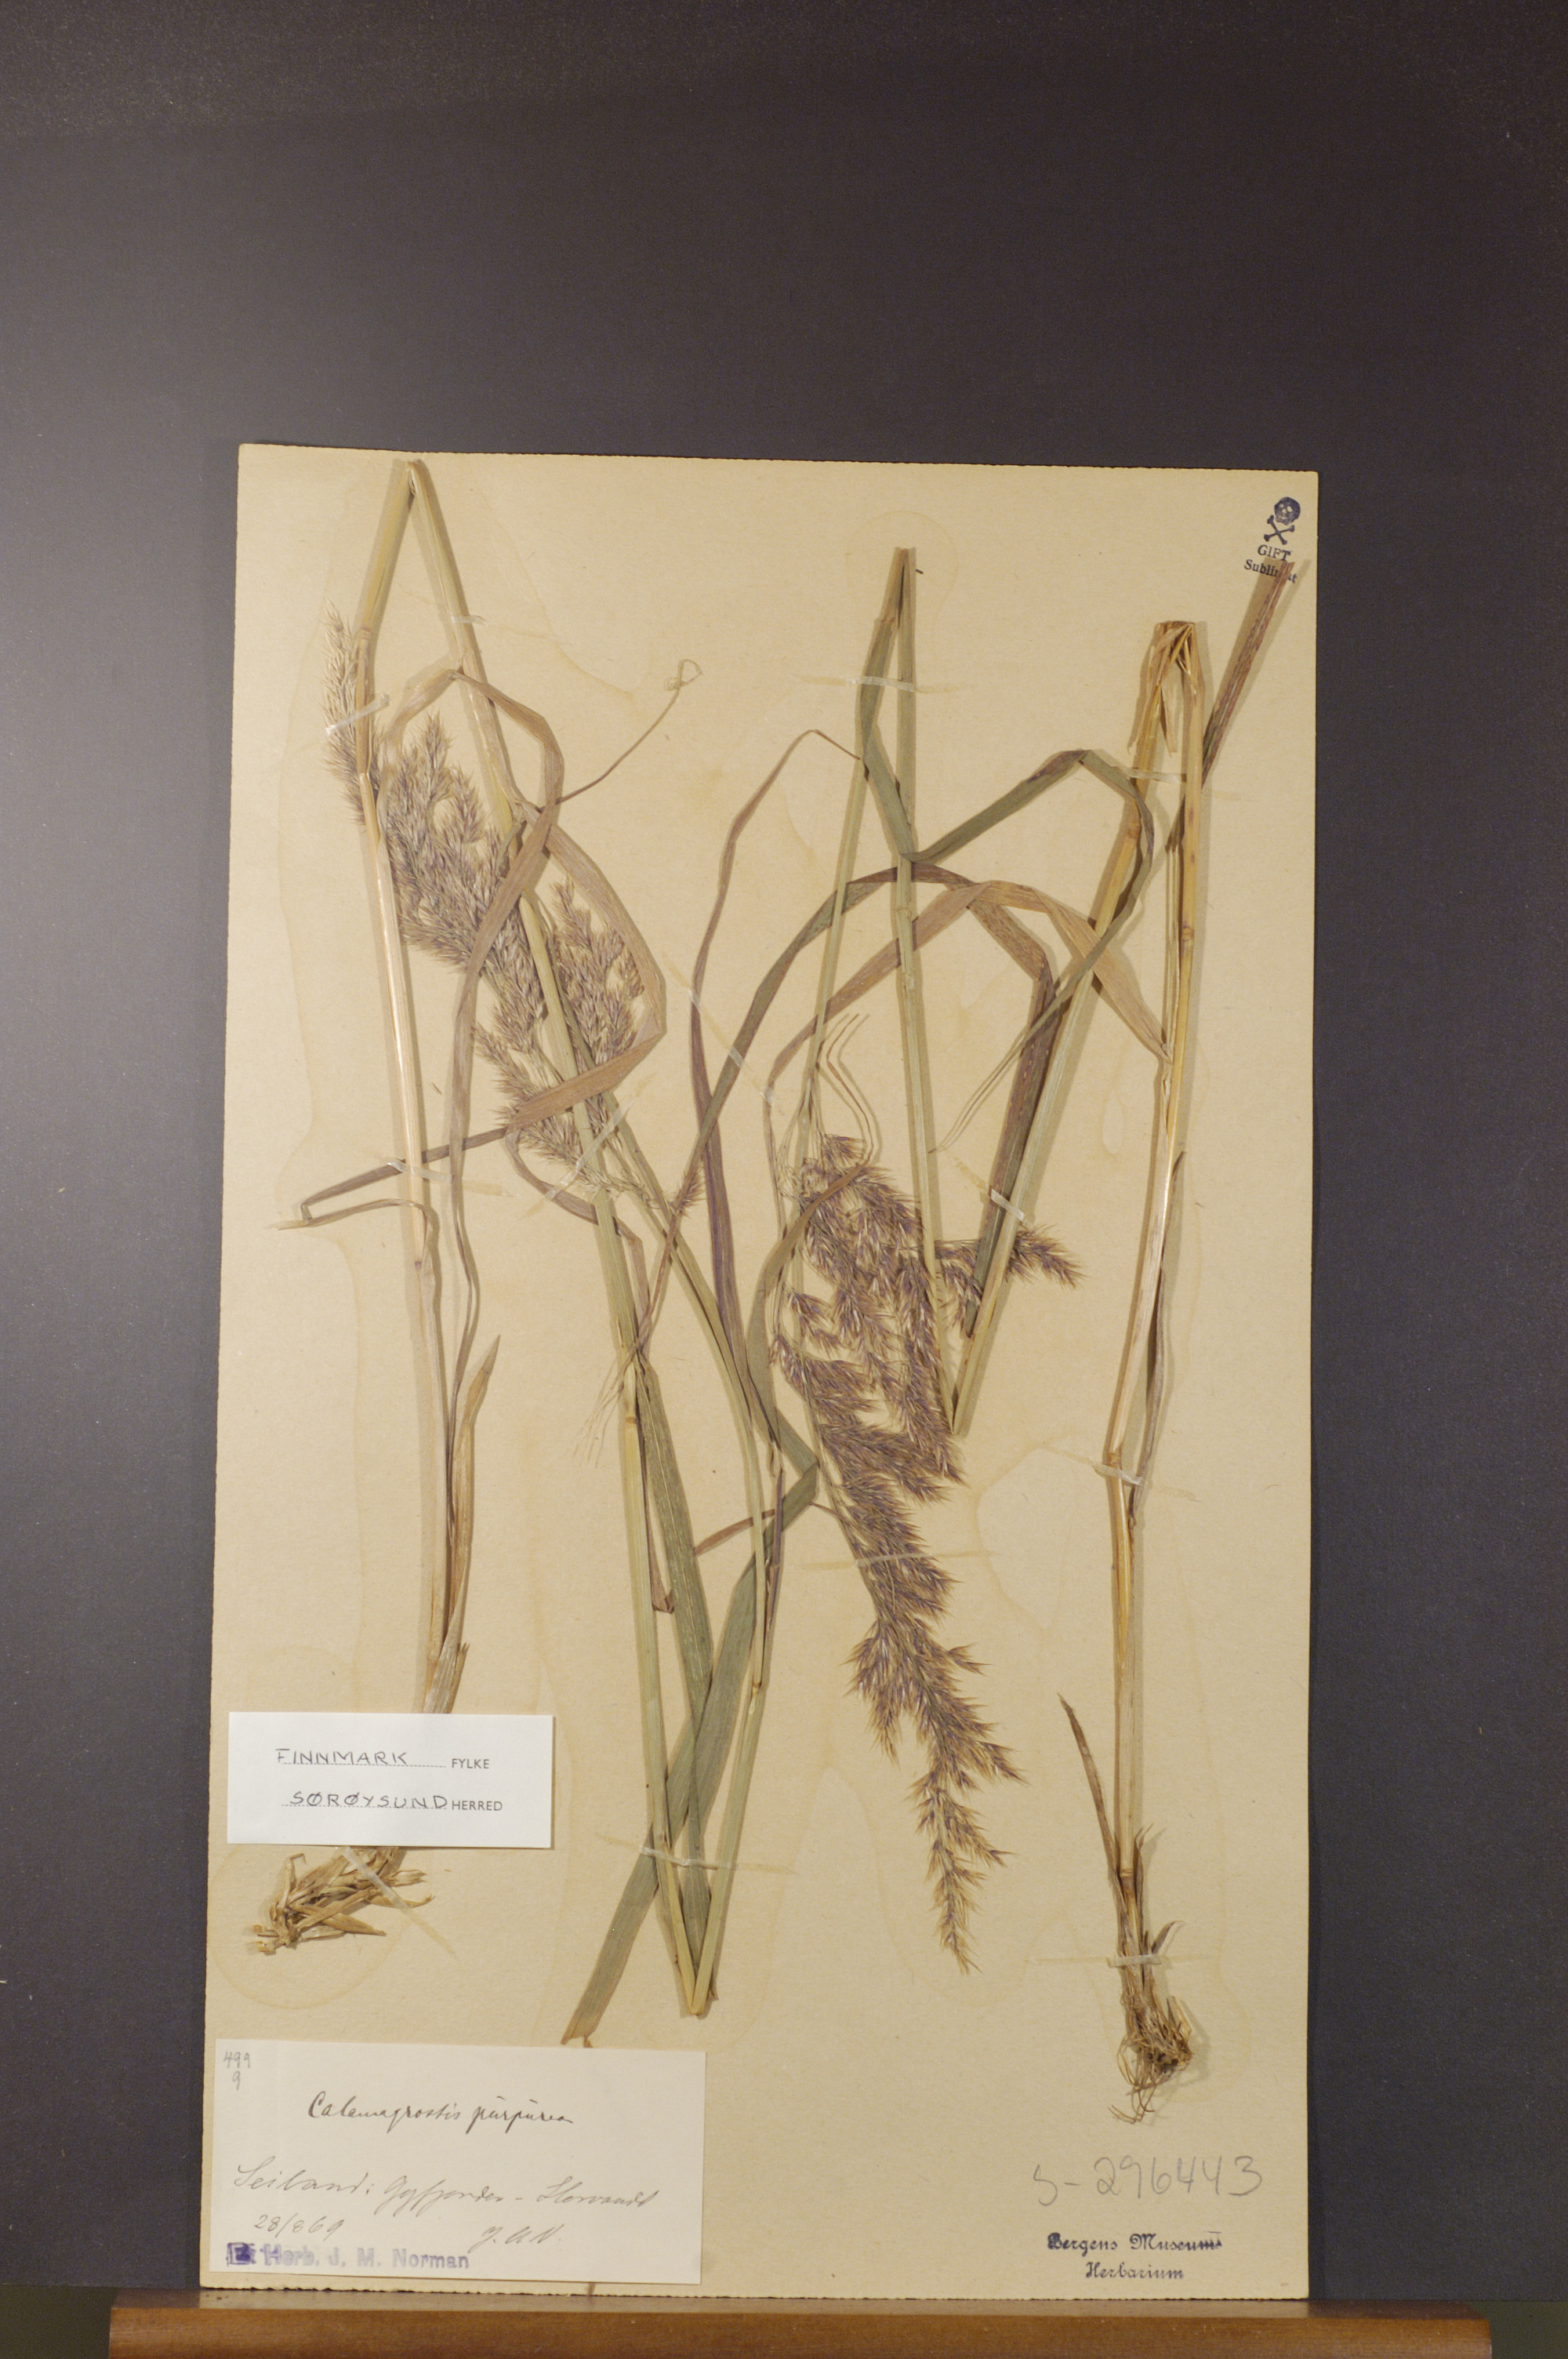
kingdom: Plantae
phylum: Tracheophyta
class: Liliopsida
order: Poales
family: Poaceae
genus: Calamagrostis
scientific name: Calamagrostis purpurea
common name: Scandinavian small-reed
